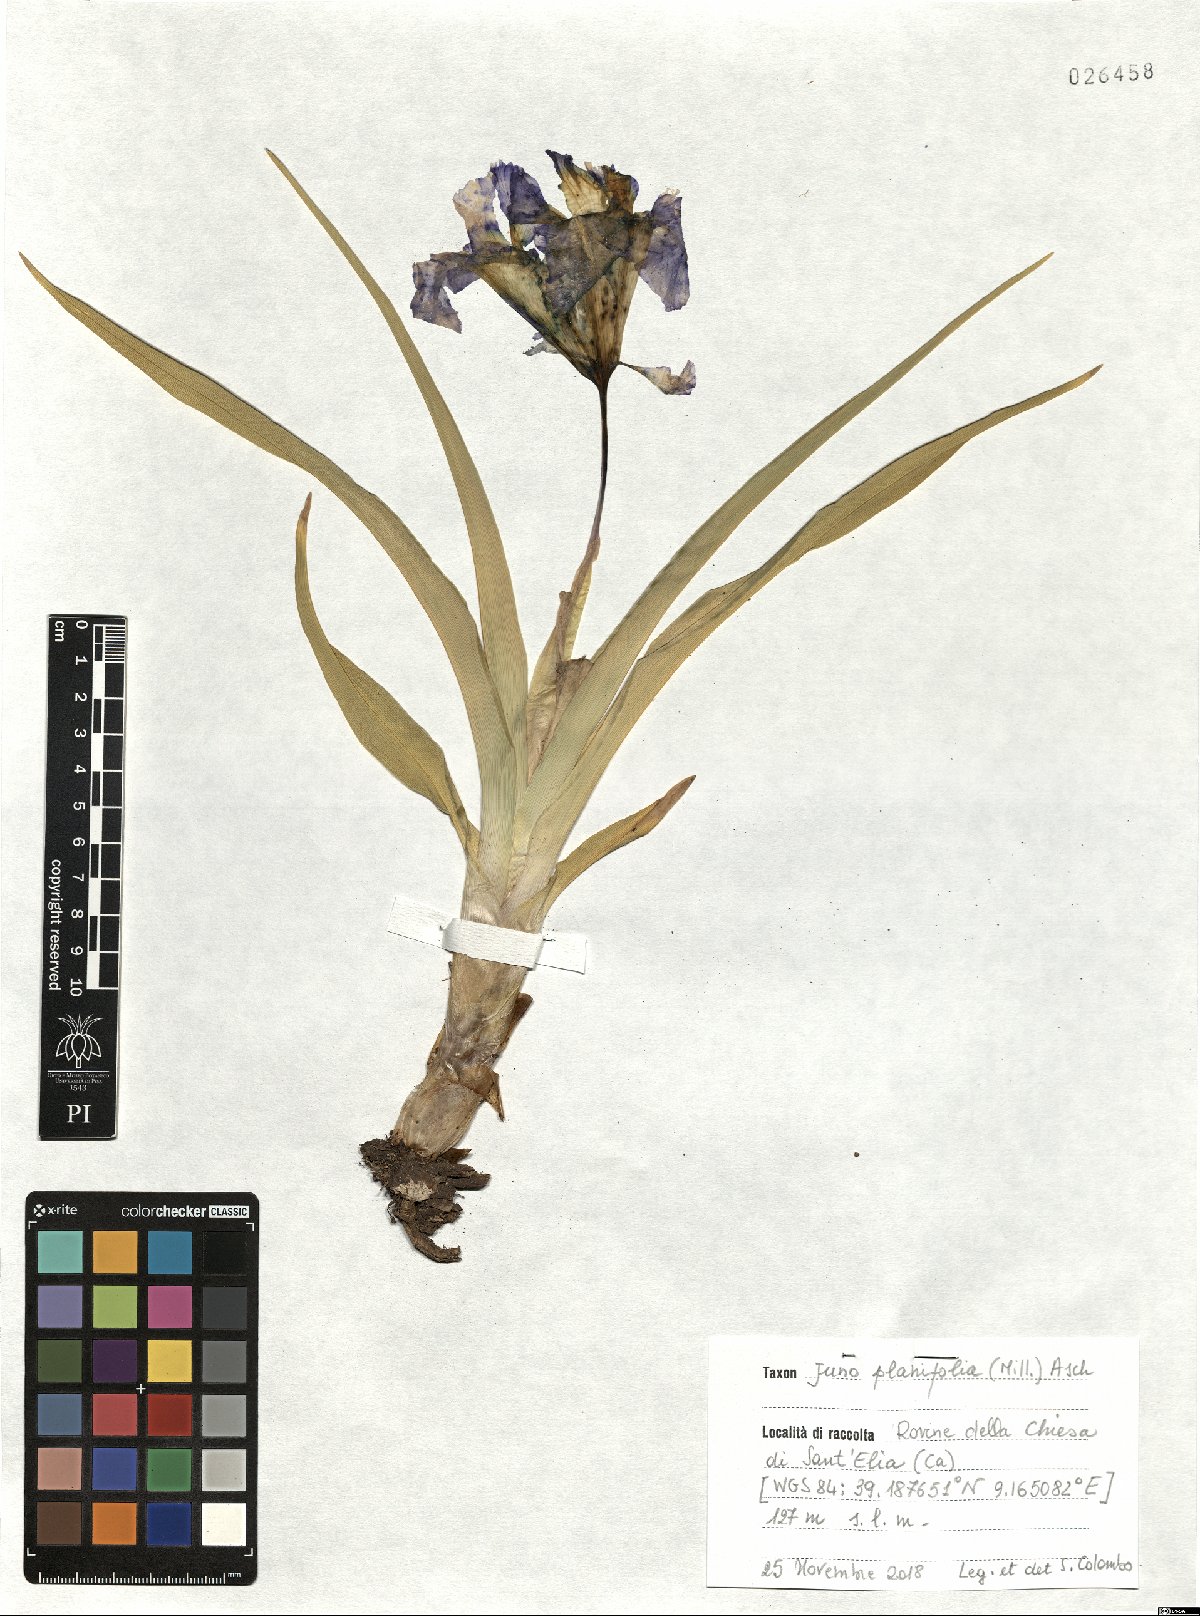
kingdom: Plantae
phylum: Tracheophyta
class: Liliopsida
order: Asparagales
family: Iridaceae
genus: Iris
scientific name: Iris planifolia
